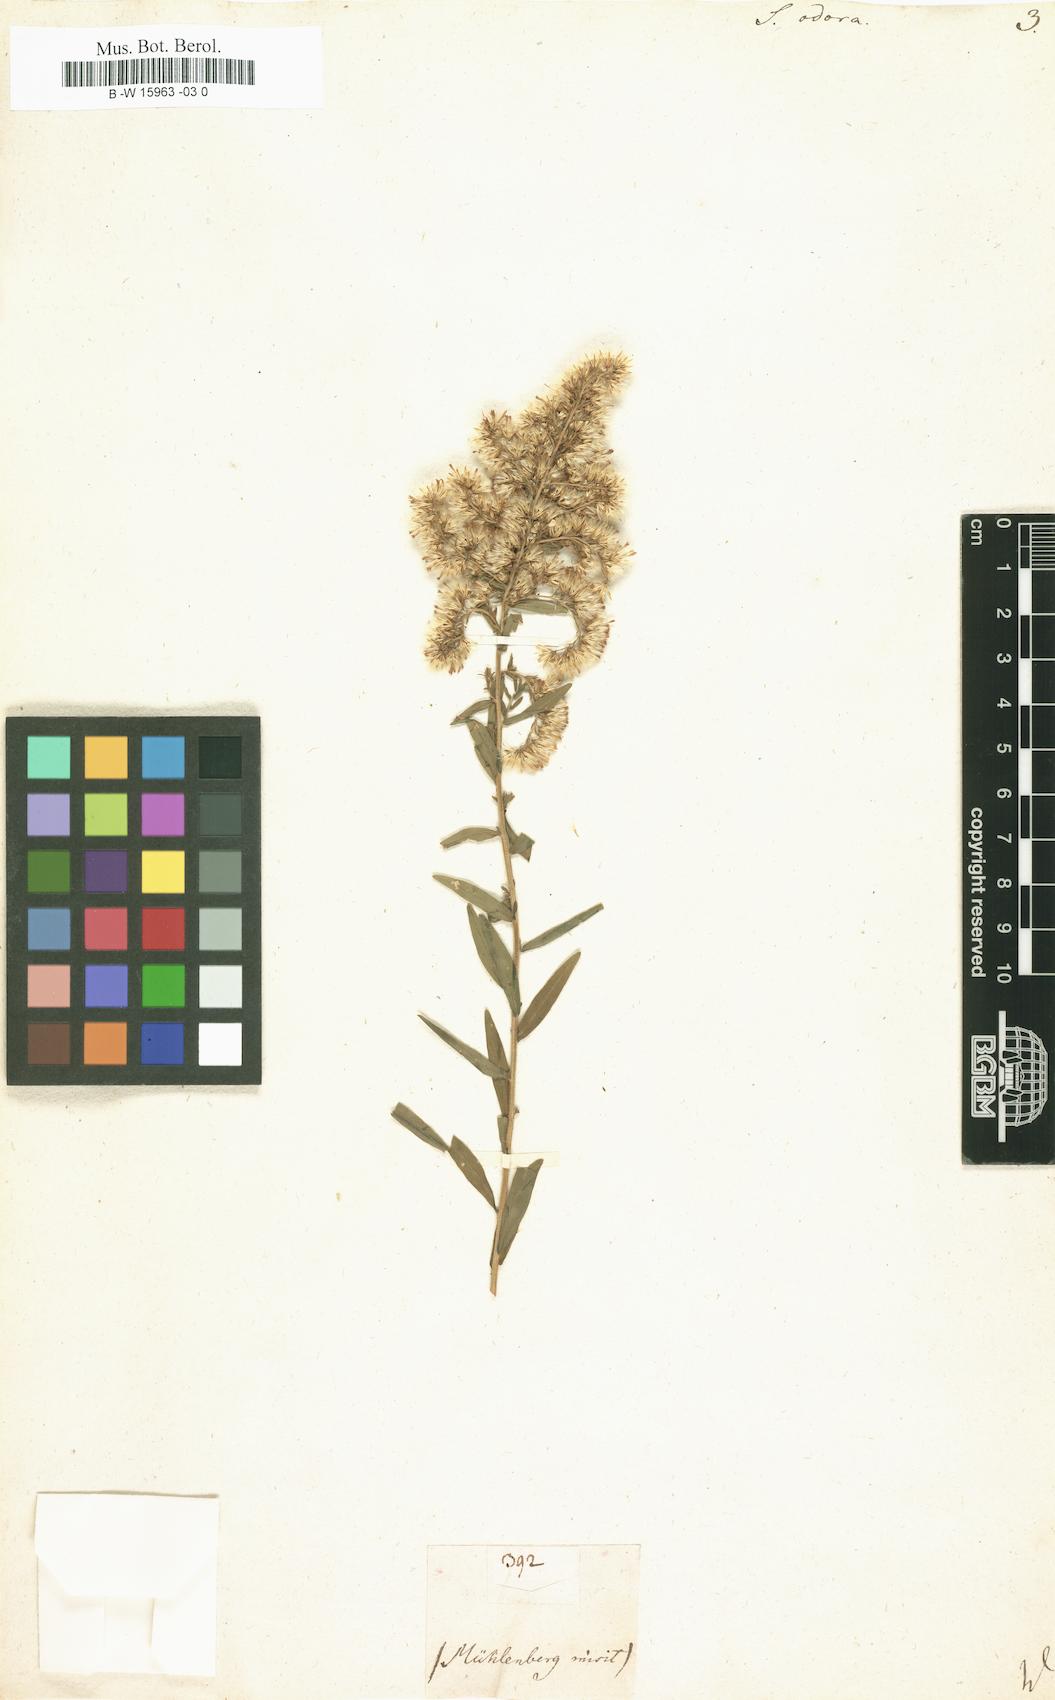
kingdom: Plantae
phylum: Tracheophyta
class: Magnoliopsida
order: Asterales
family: Asteraceae
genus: Solidago
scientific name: Solidago odora
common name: Anise-scented goldenrod
